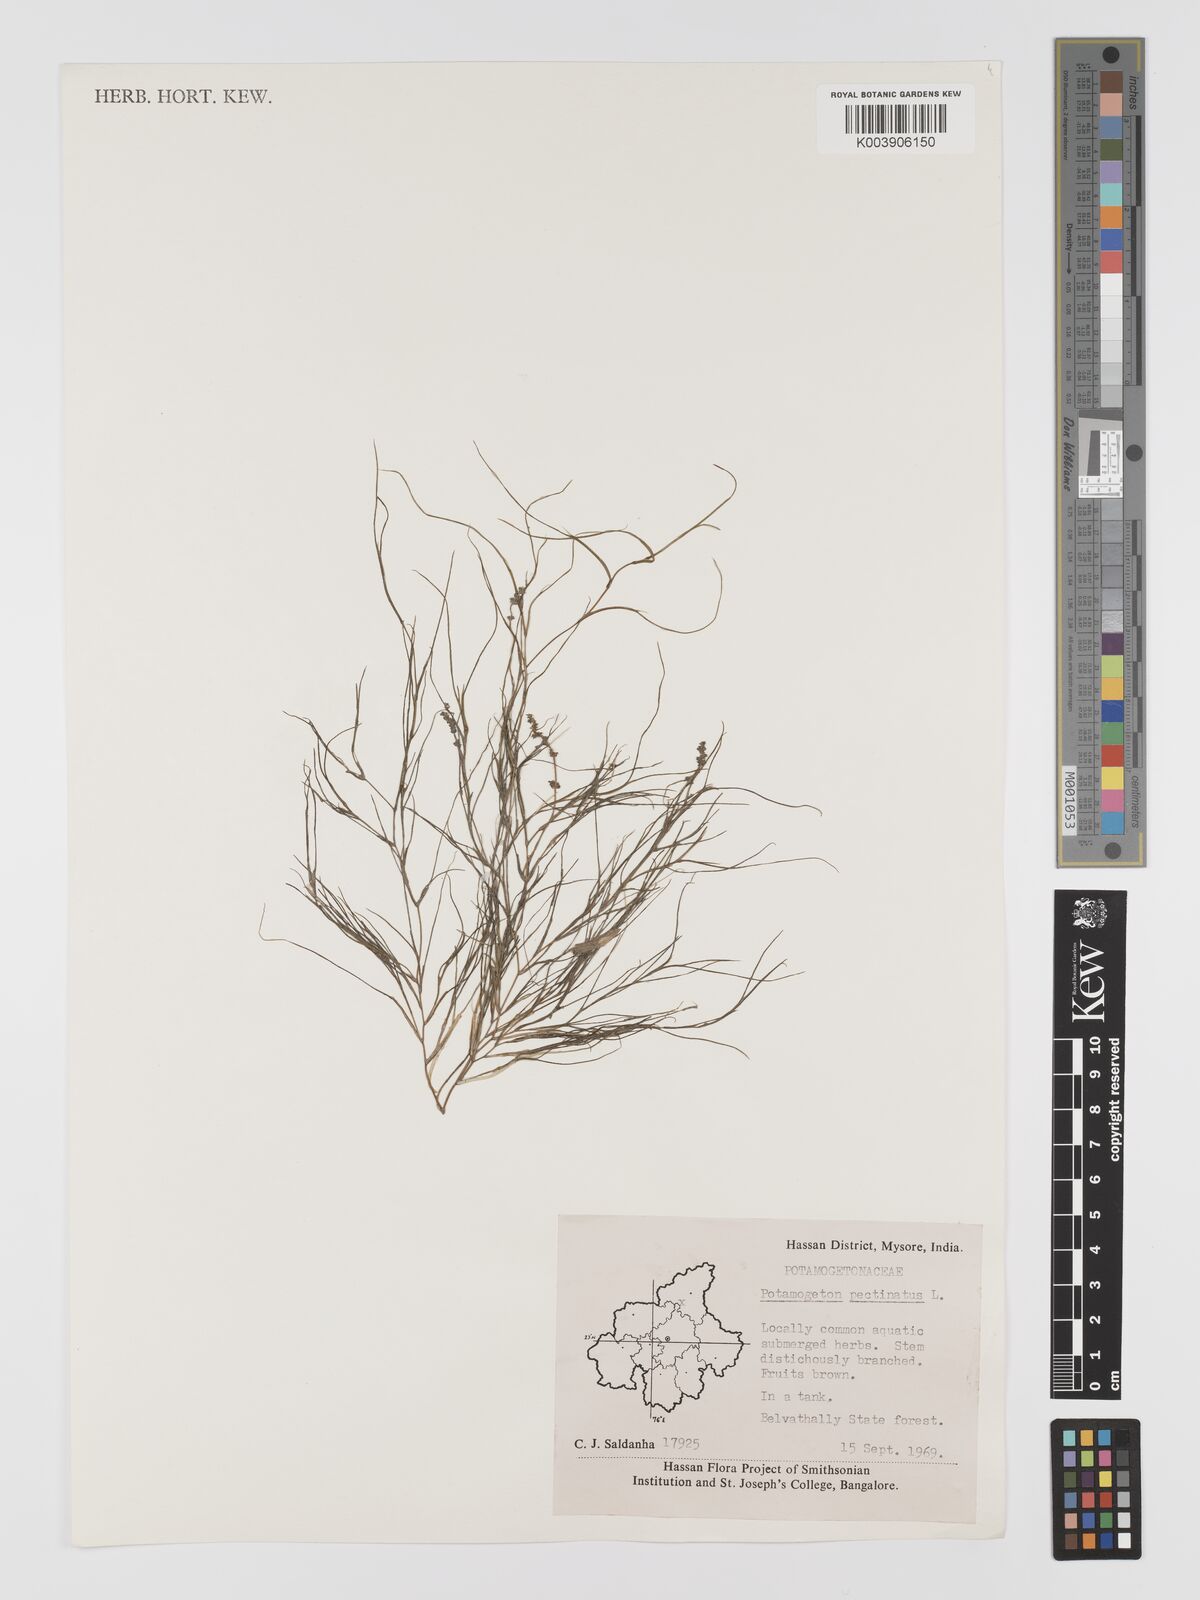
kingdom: Plantae
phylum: Tracheophyta
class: Liliopsida
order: Alismatales
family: Potamogetonaceae
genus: Stuckenia
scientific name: Stuckenia pectinata
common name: Sago pondweed
